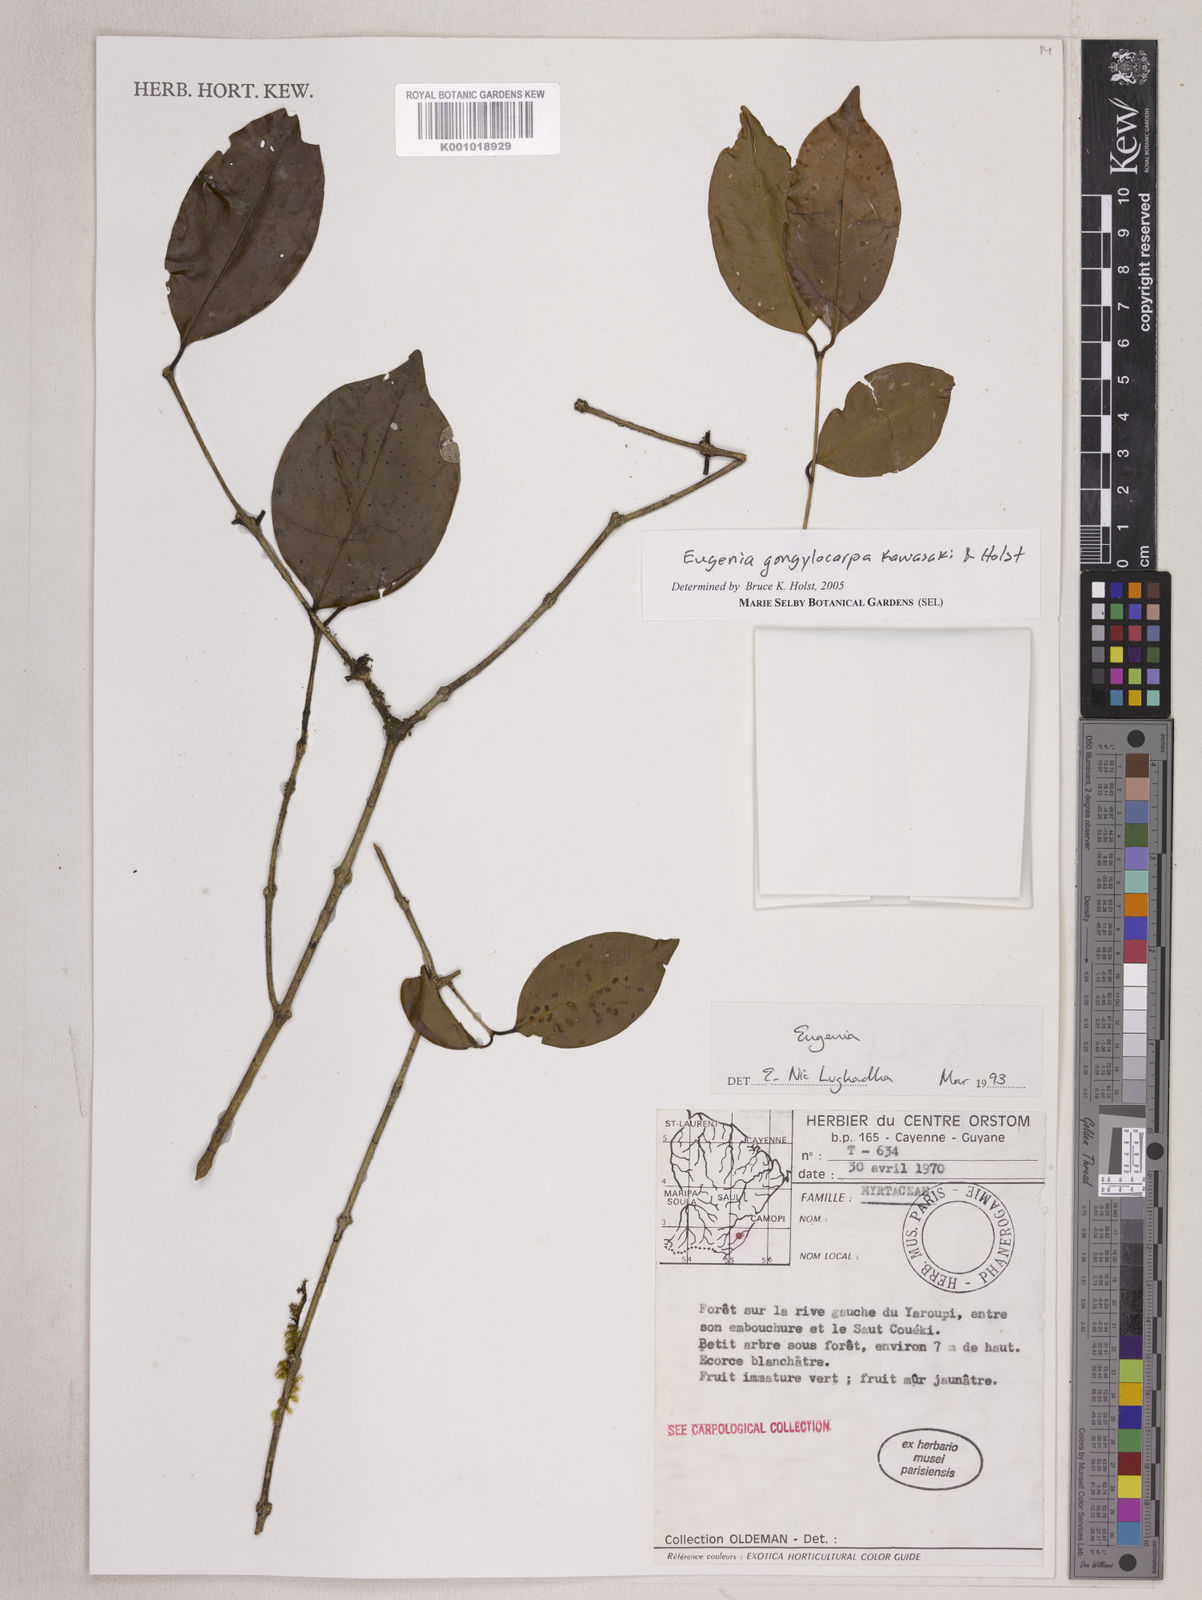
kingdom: Plantae
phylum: Tracheophyta
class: Magnoliopsida
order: Myrtales
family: Myrtaceae
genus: Eugenia
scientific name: Eugenia gongylocarpa
